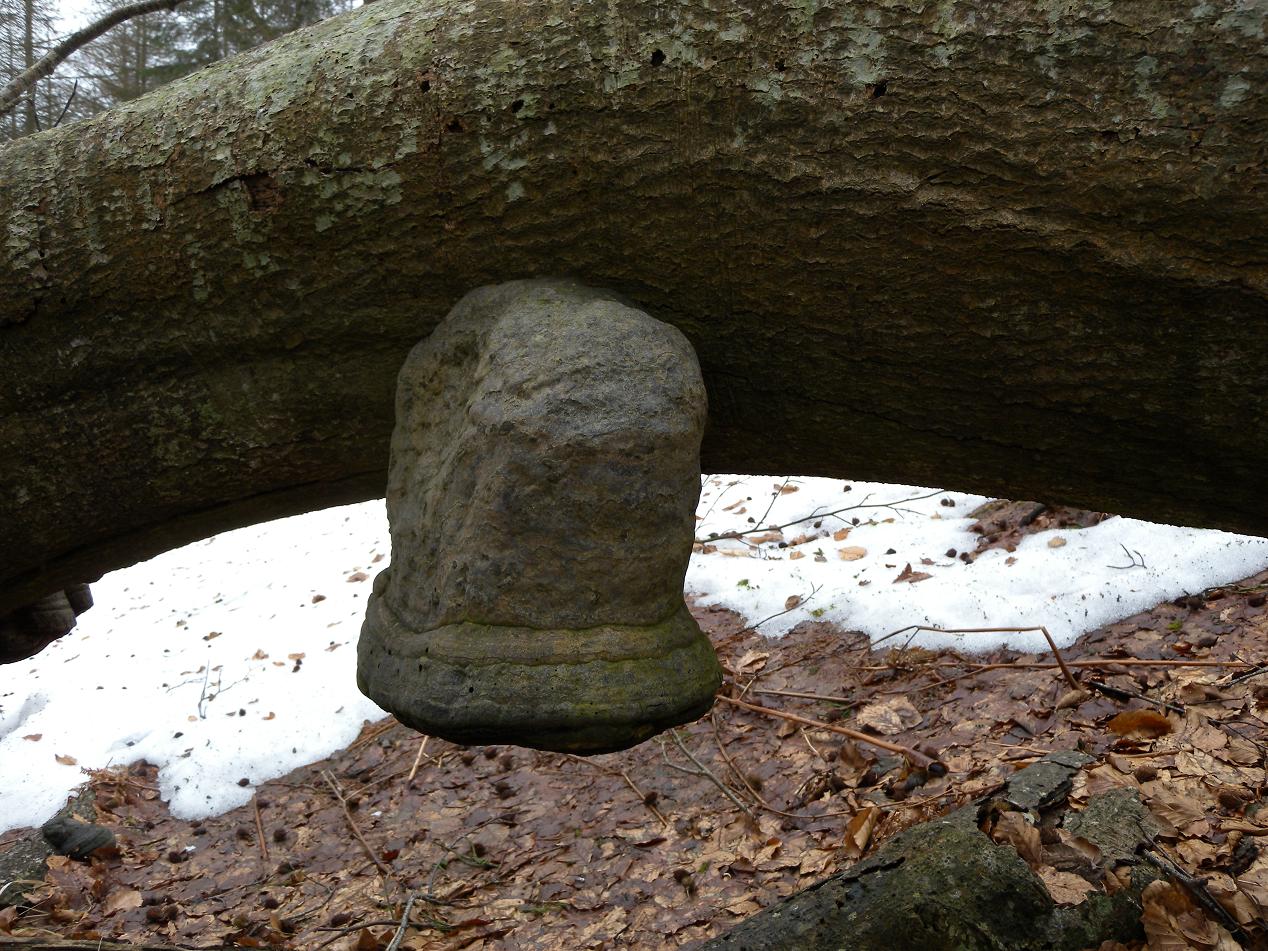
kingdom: Fungi
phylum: Basidiomycota
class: Agaricomycetes
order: Polyporales
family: Polyporaceae
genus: Fomes
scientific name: Fomes fomentarius
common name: tøndersvamp
